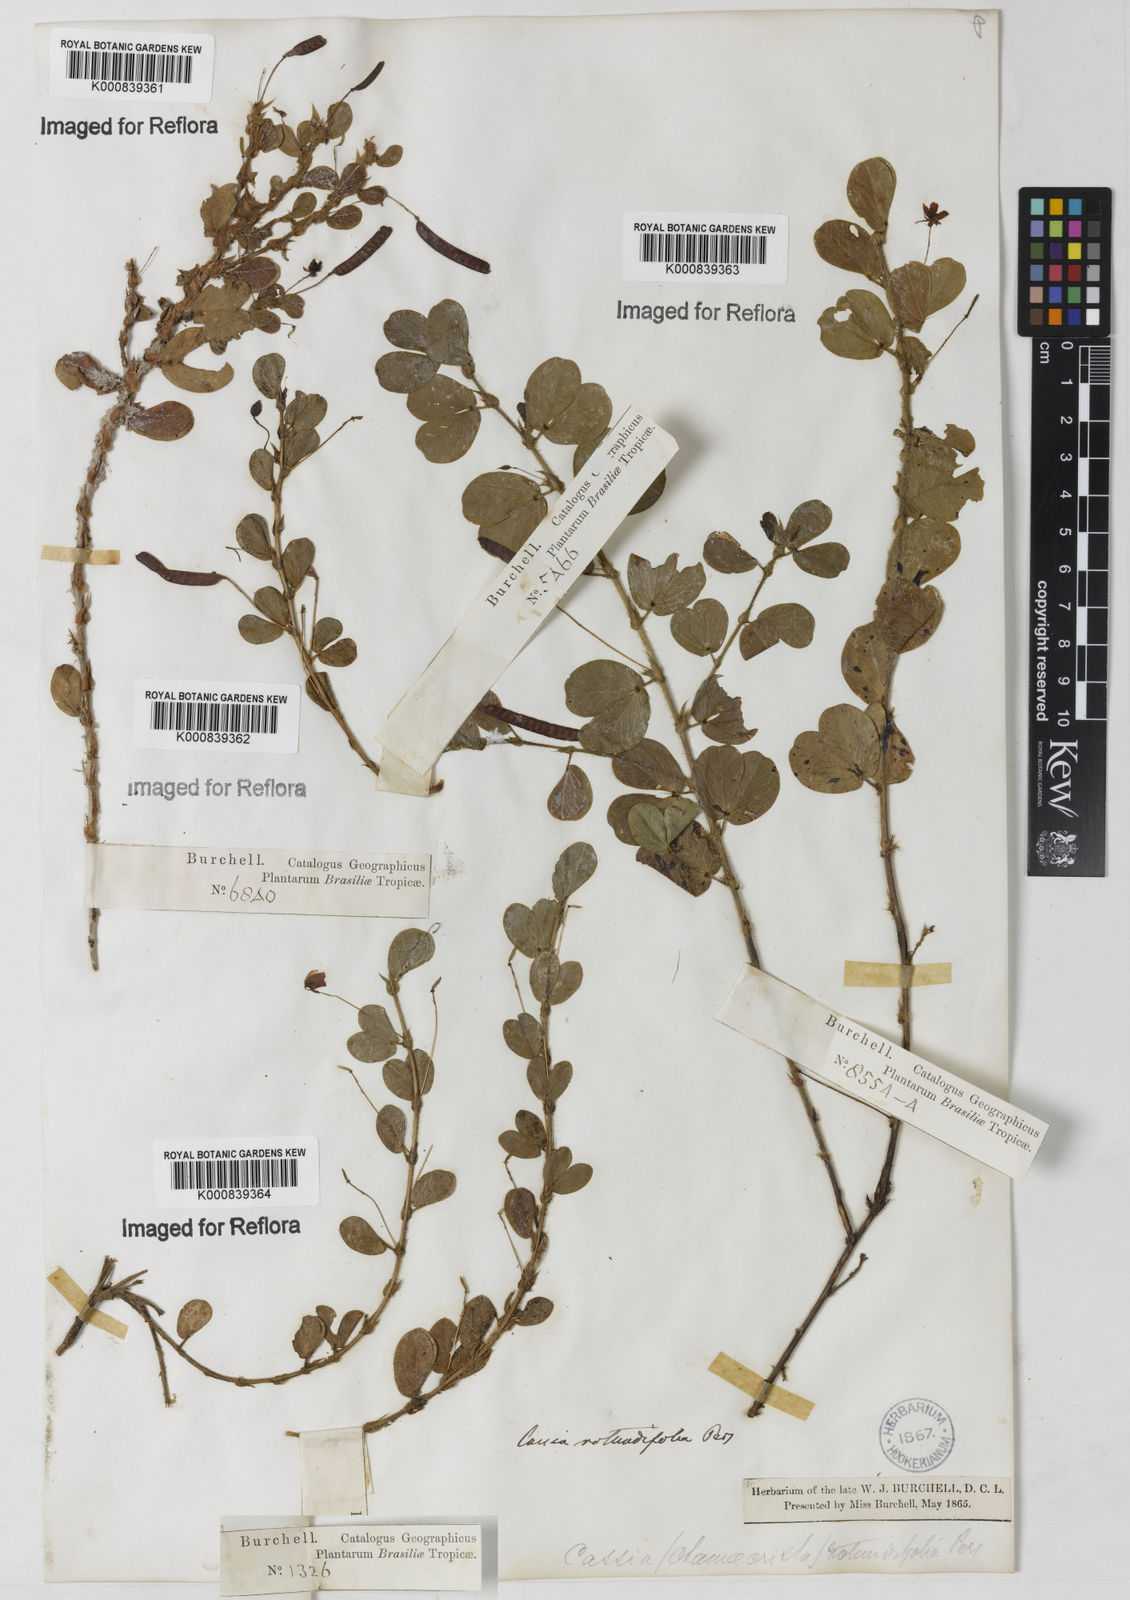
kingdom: Plantae
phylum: Tracheophyta
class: Magnoliopsida
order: Fabales
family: Fabaceae
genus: Chamaecrista
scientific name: Chamaecrista rotundifolia
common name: Round-leaf cassia
